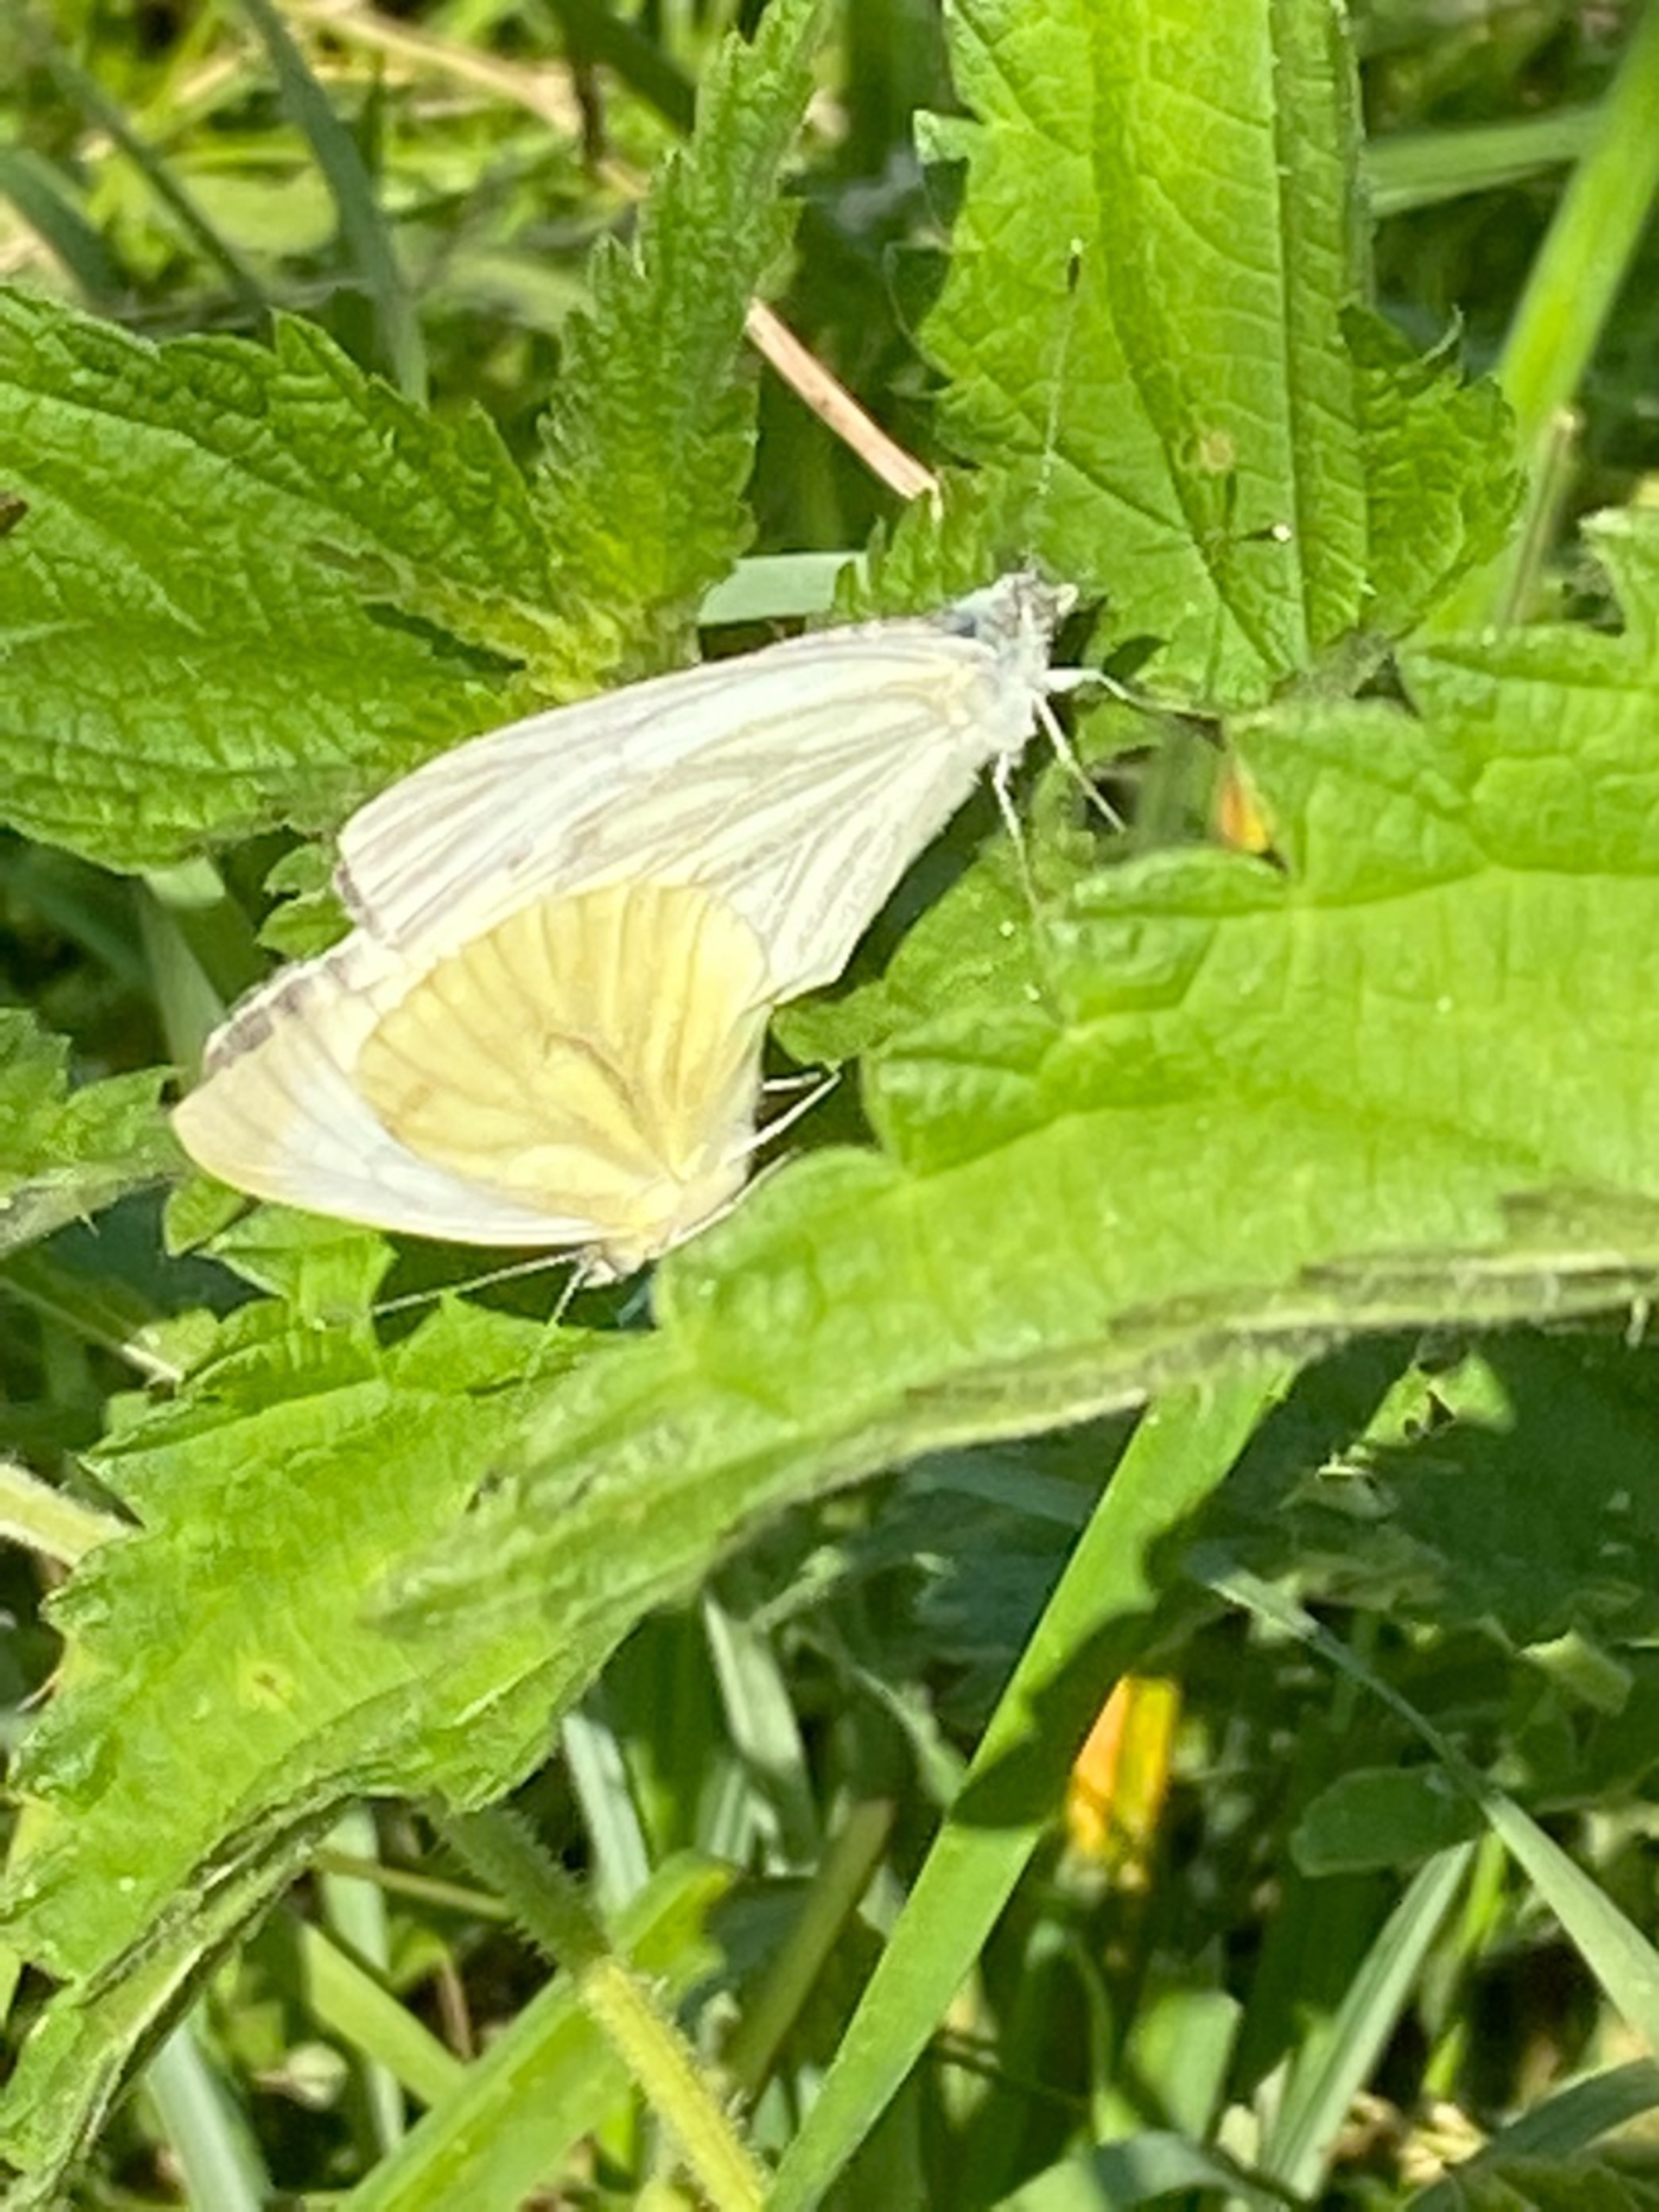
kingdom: Animalia
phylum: Arthropoda
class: Insecta
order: Lepidoptera
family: Pieridae
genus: Pieris
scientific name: Pieris napi
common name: Grønåret kålsommerfugl
